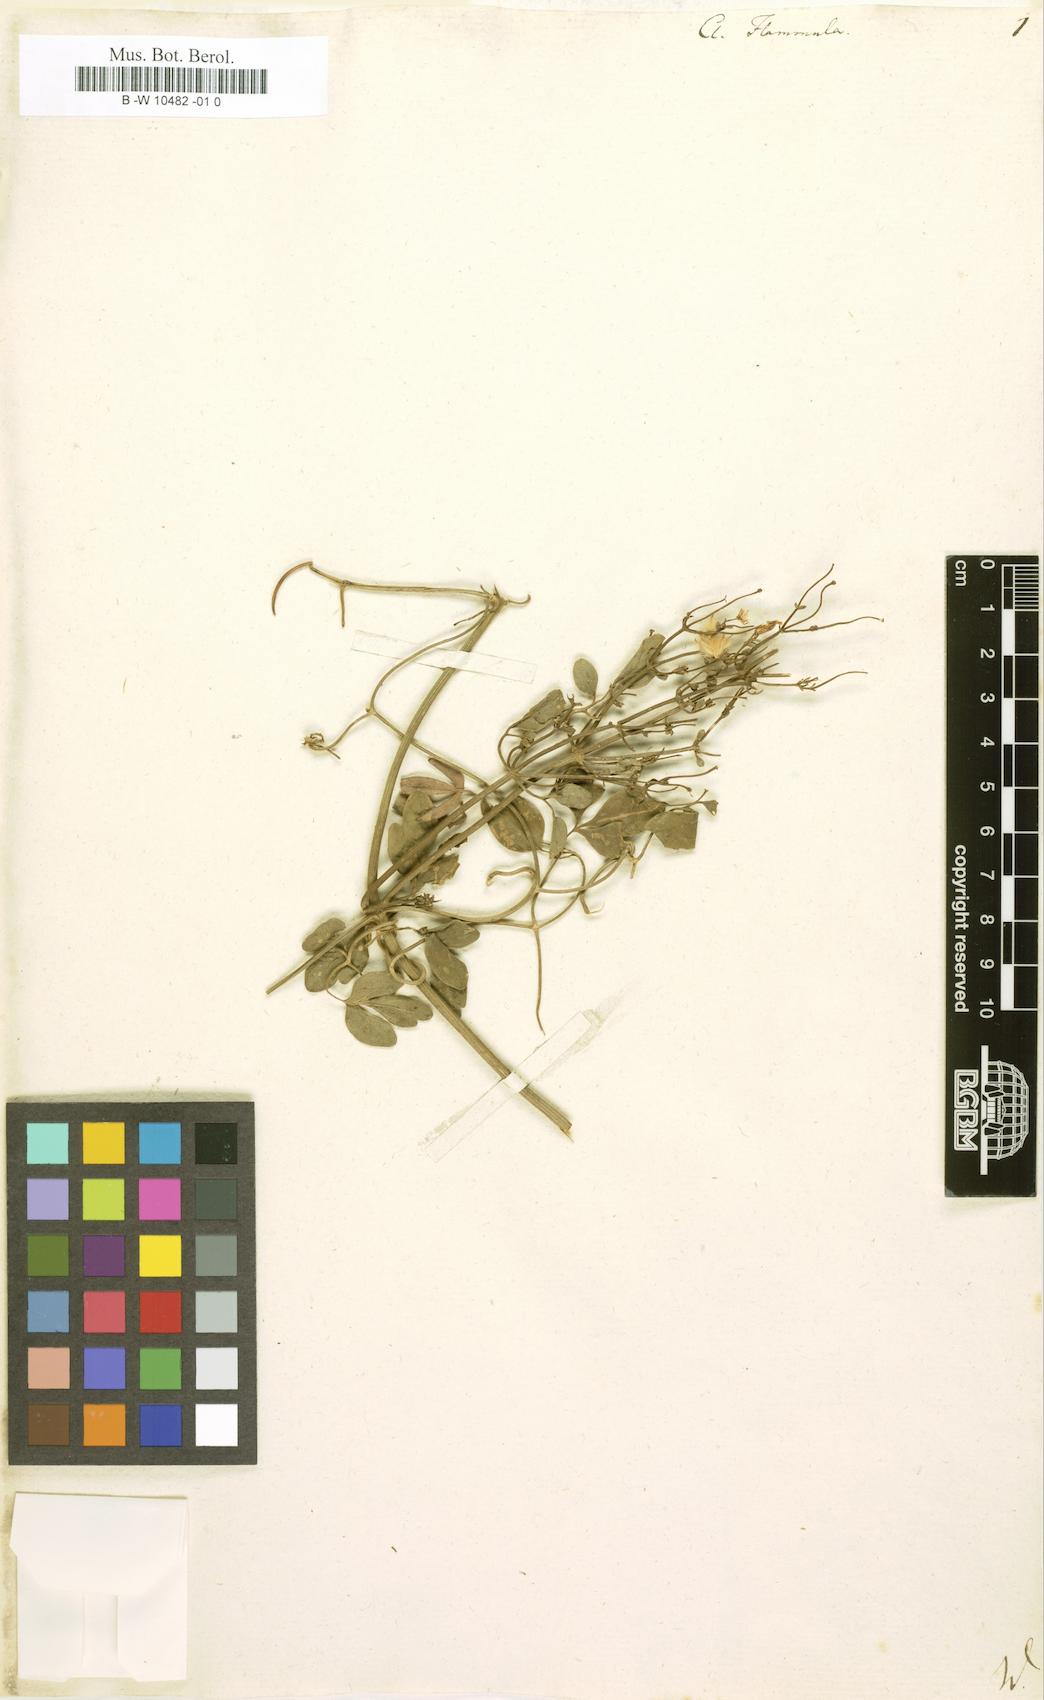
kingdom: Plantae
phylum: Tracheophyta
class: Magnoliopsida
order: Ranunculales
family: Ranunculaceae
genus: Clematis
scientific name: Clematis flammula
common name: Virgin's-bower
